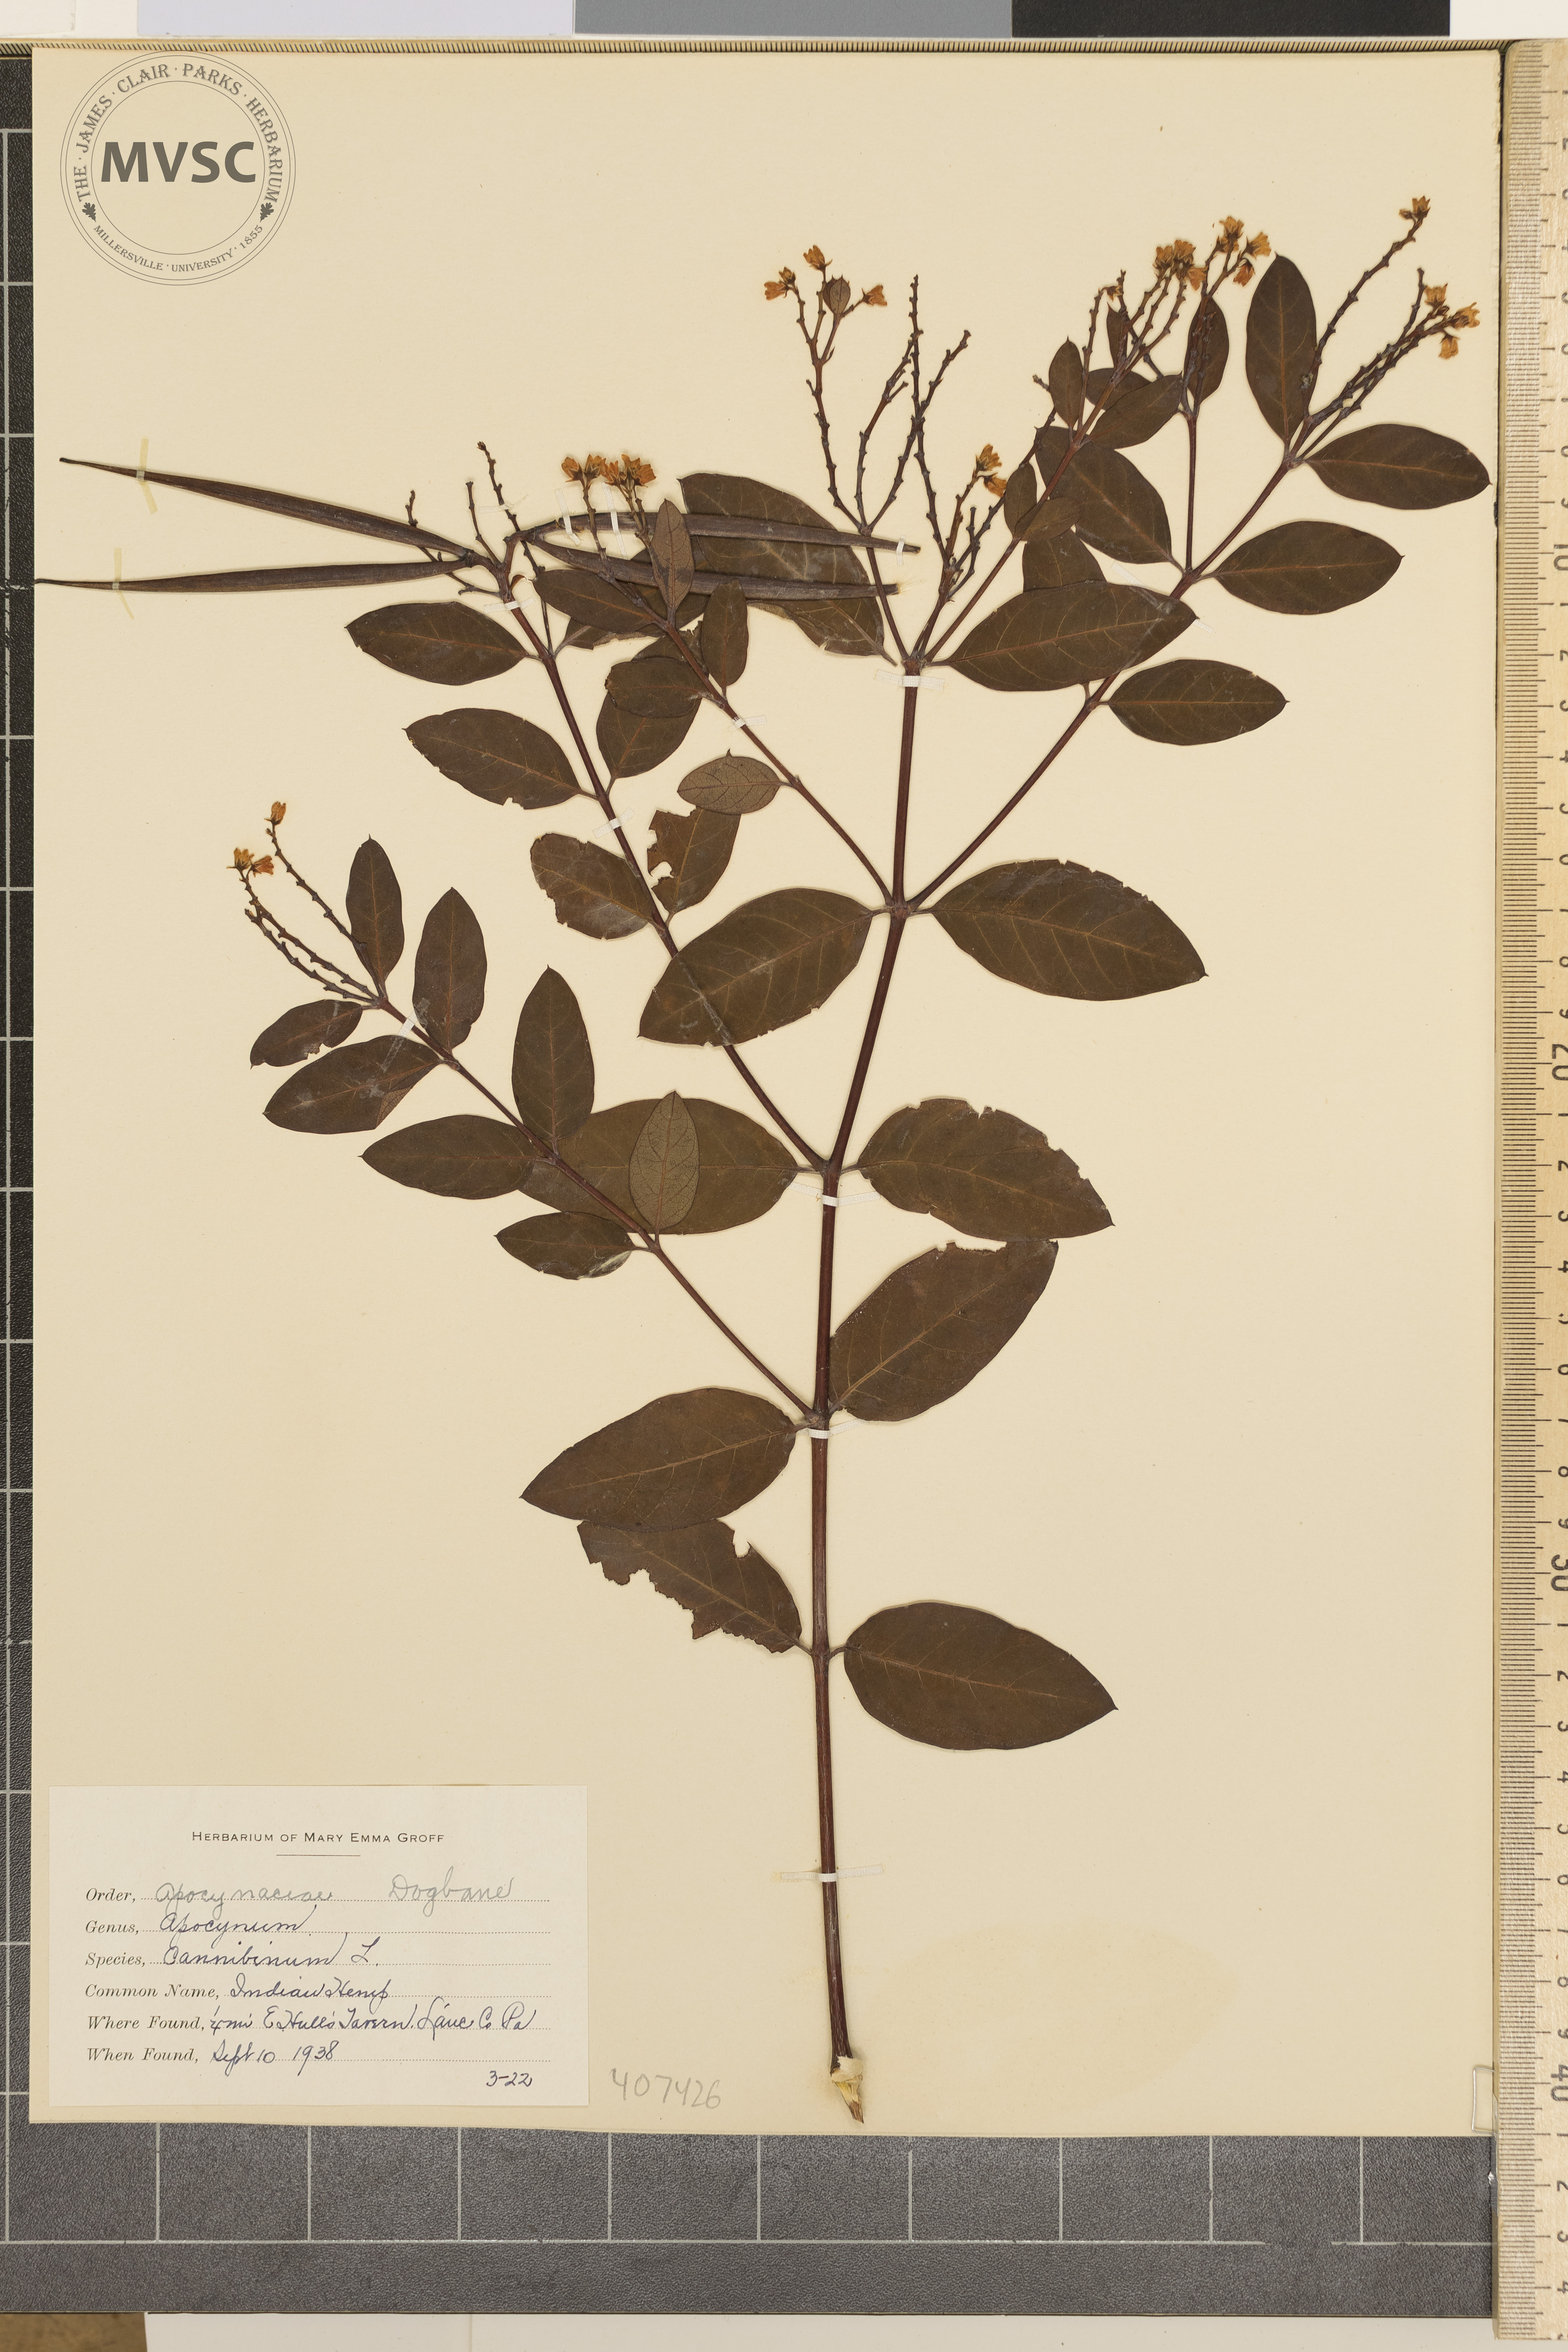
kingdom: Plantae
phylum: Tracheophyta
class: Magnoliopsida
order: Gentianales
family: Apocynaceae
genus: Apocynum
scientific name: Apocynum cannabinum
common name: Indian Hemp
